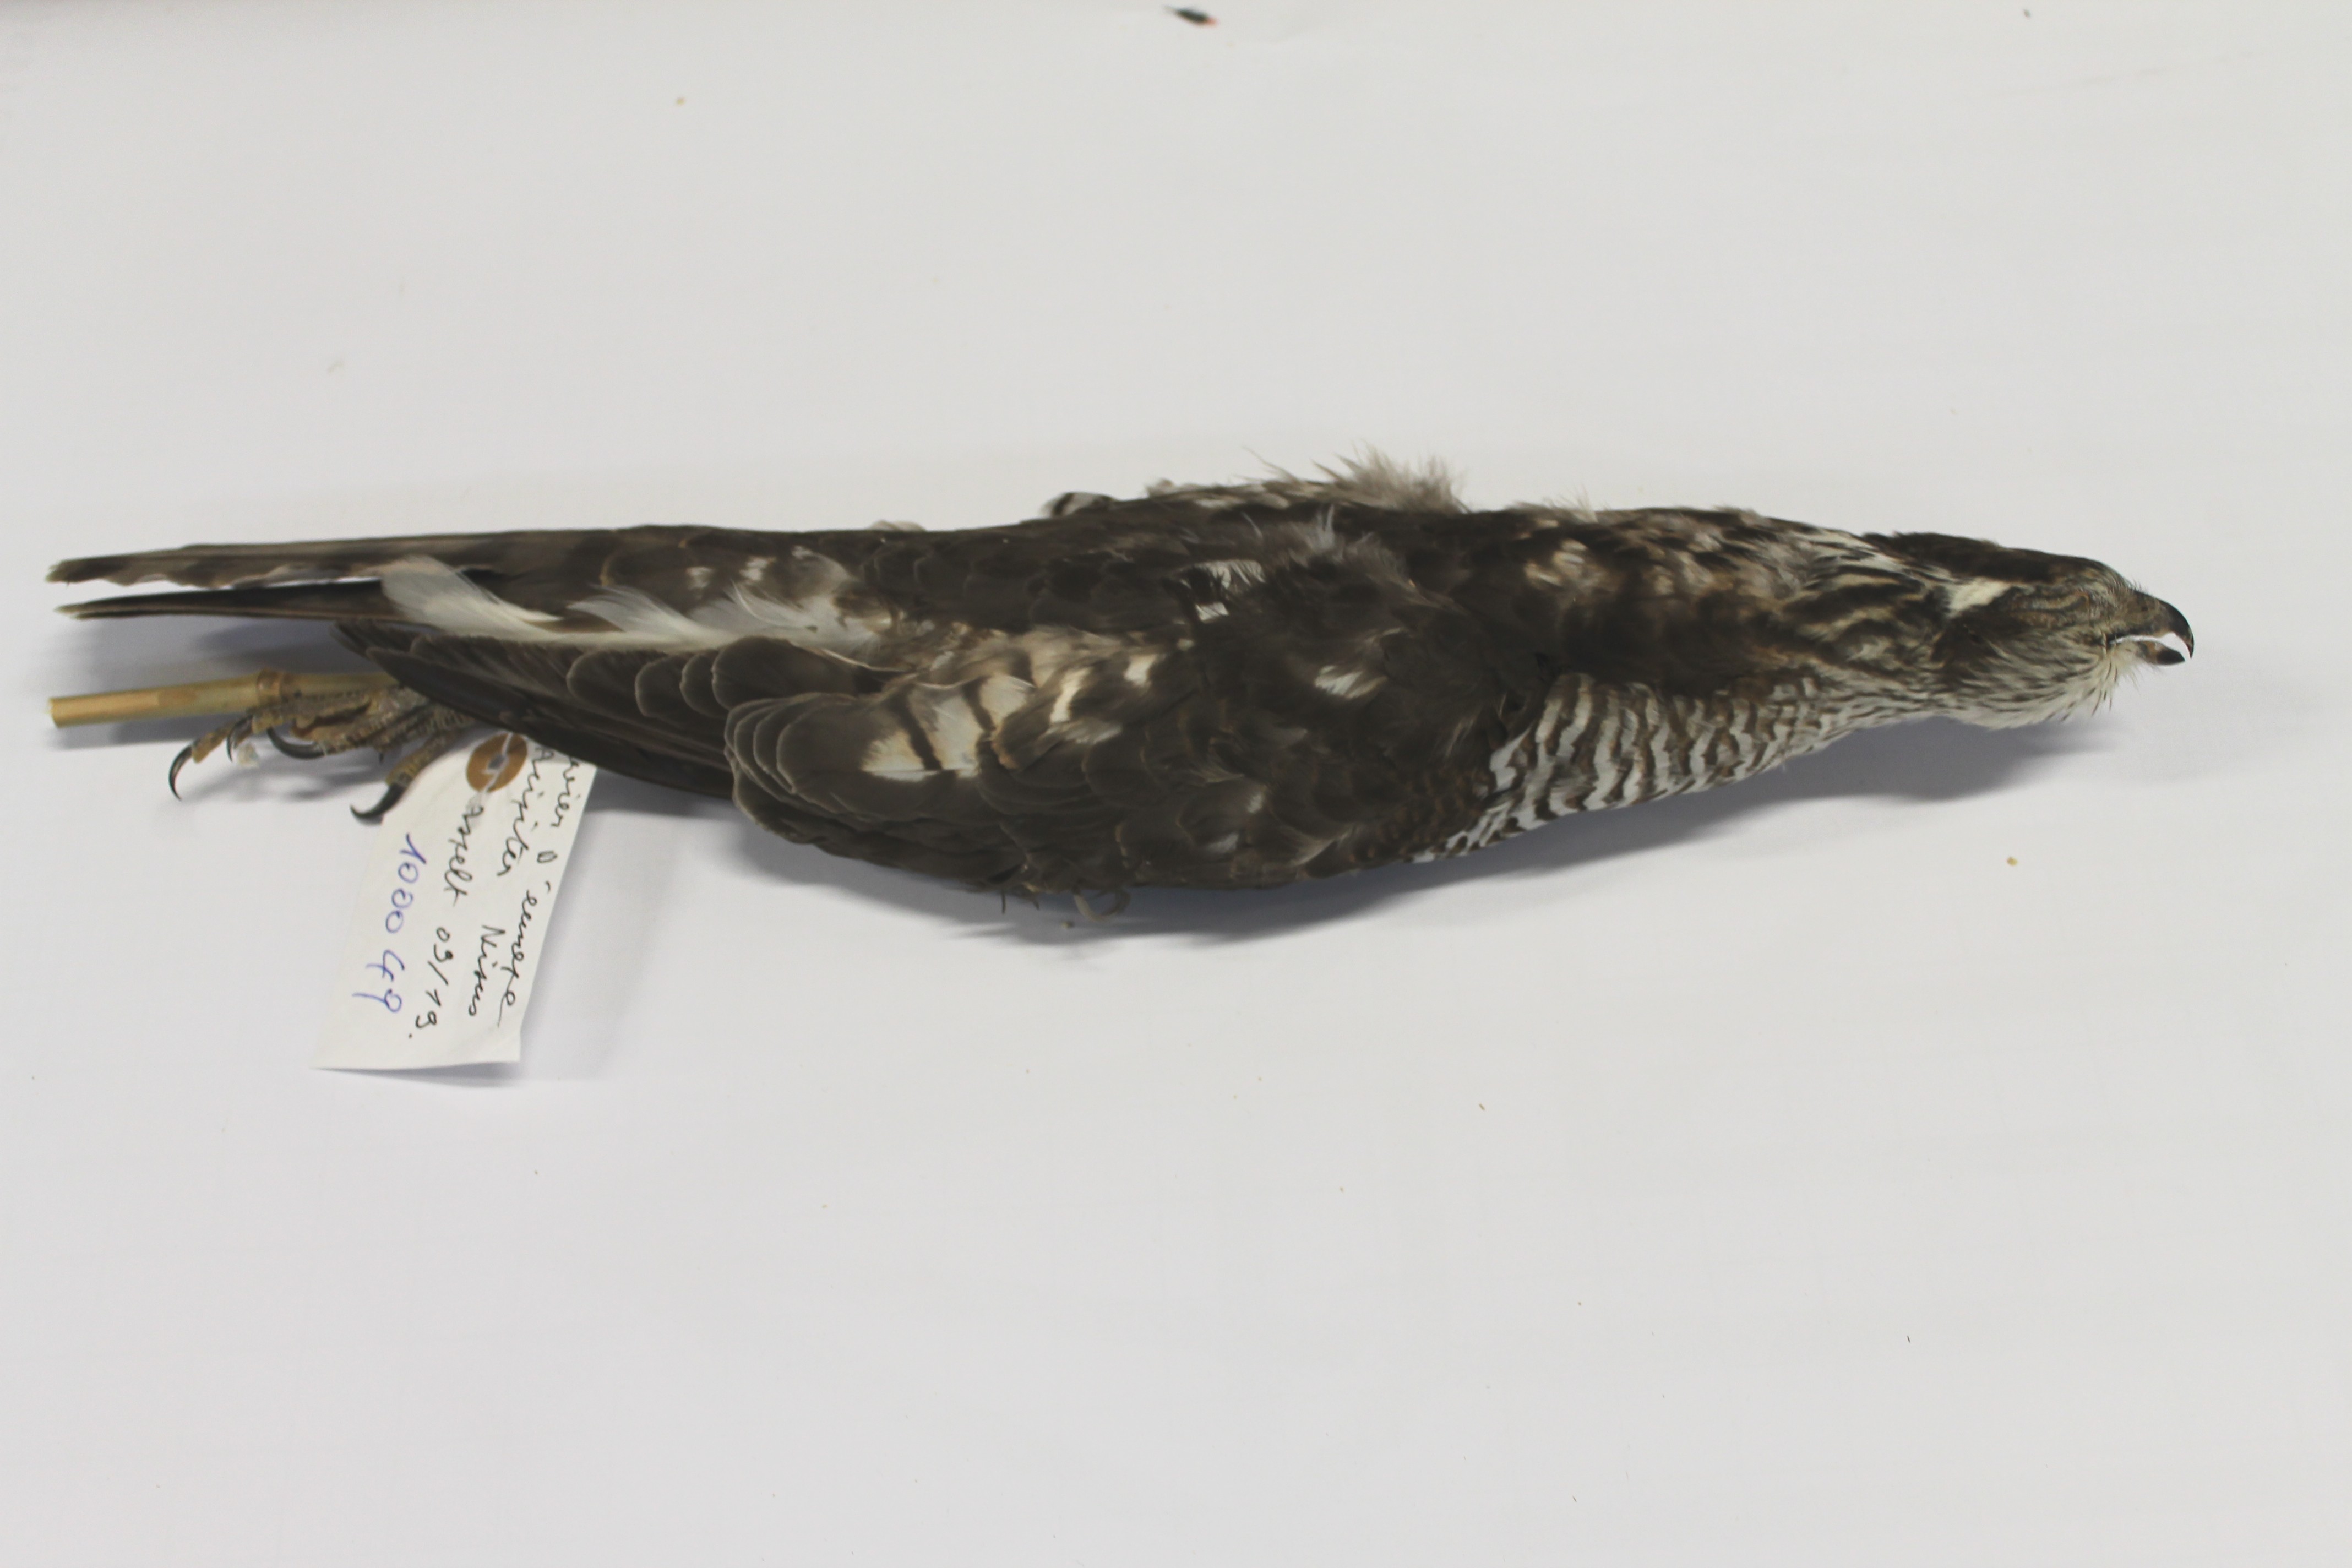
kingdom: Animalia
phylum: Chordata
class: Aves
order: Accipitriformes
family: Accipitridae
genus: Accipiter
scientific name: Accipiter nisus
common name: Eurasian sparrowhawk
